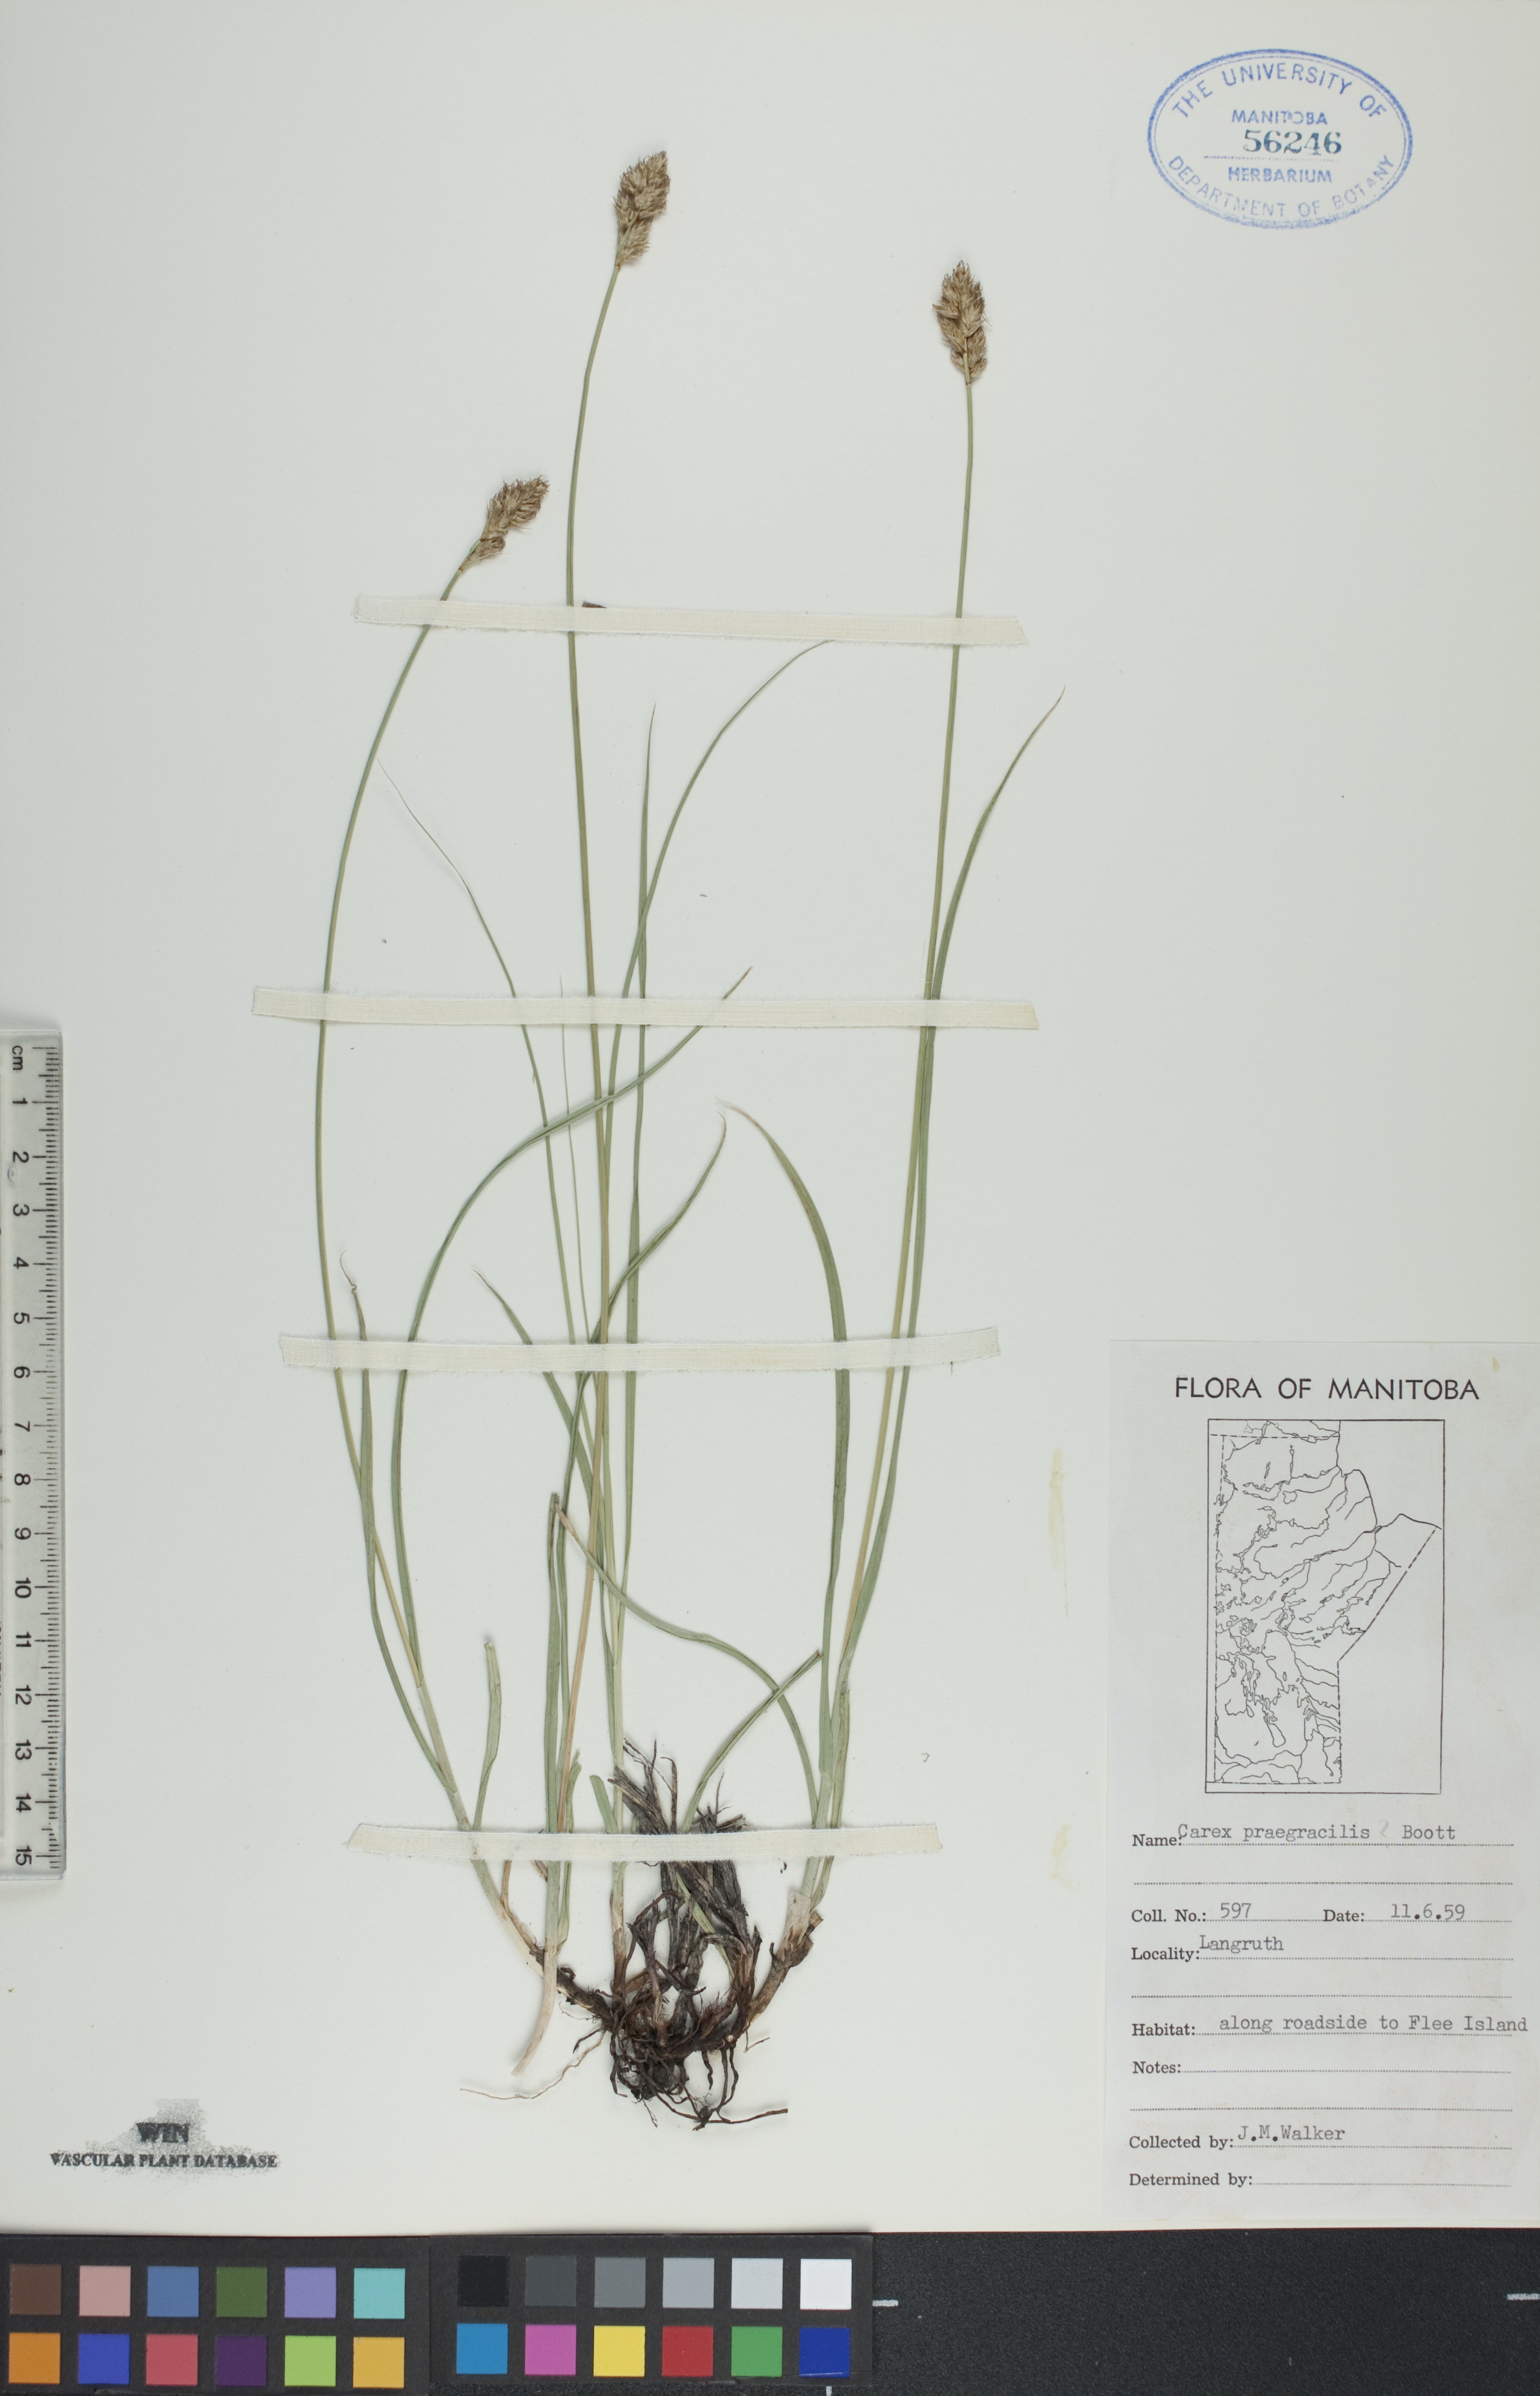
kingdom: Plantae
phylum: Tracheophyta
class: Liliopsida
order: Poales
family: Cyperaceae
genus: Carex
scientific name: Carex praegracilis
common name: Black creeper sedge
